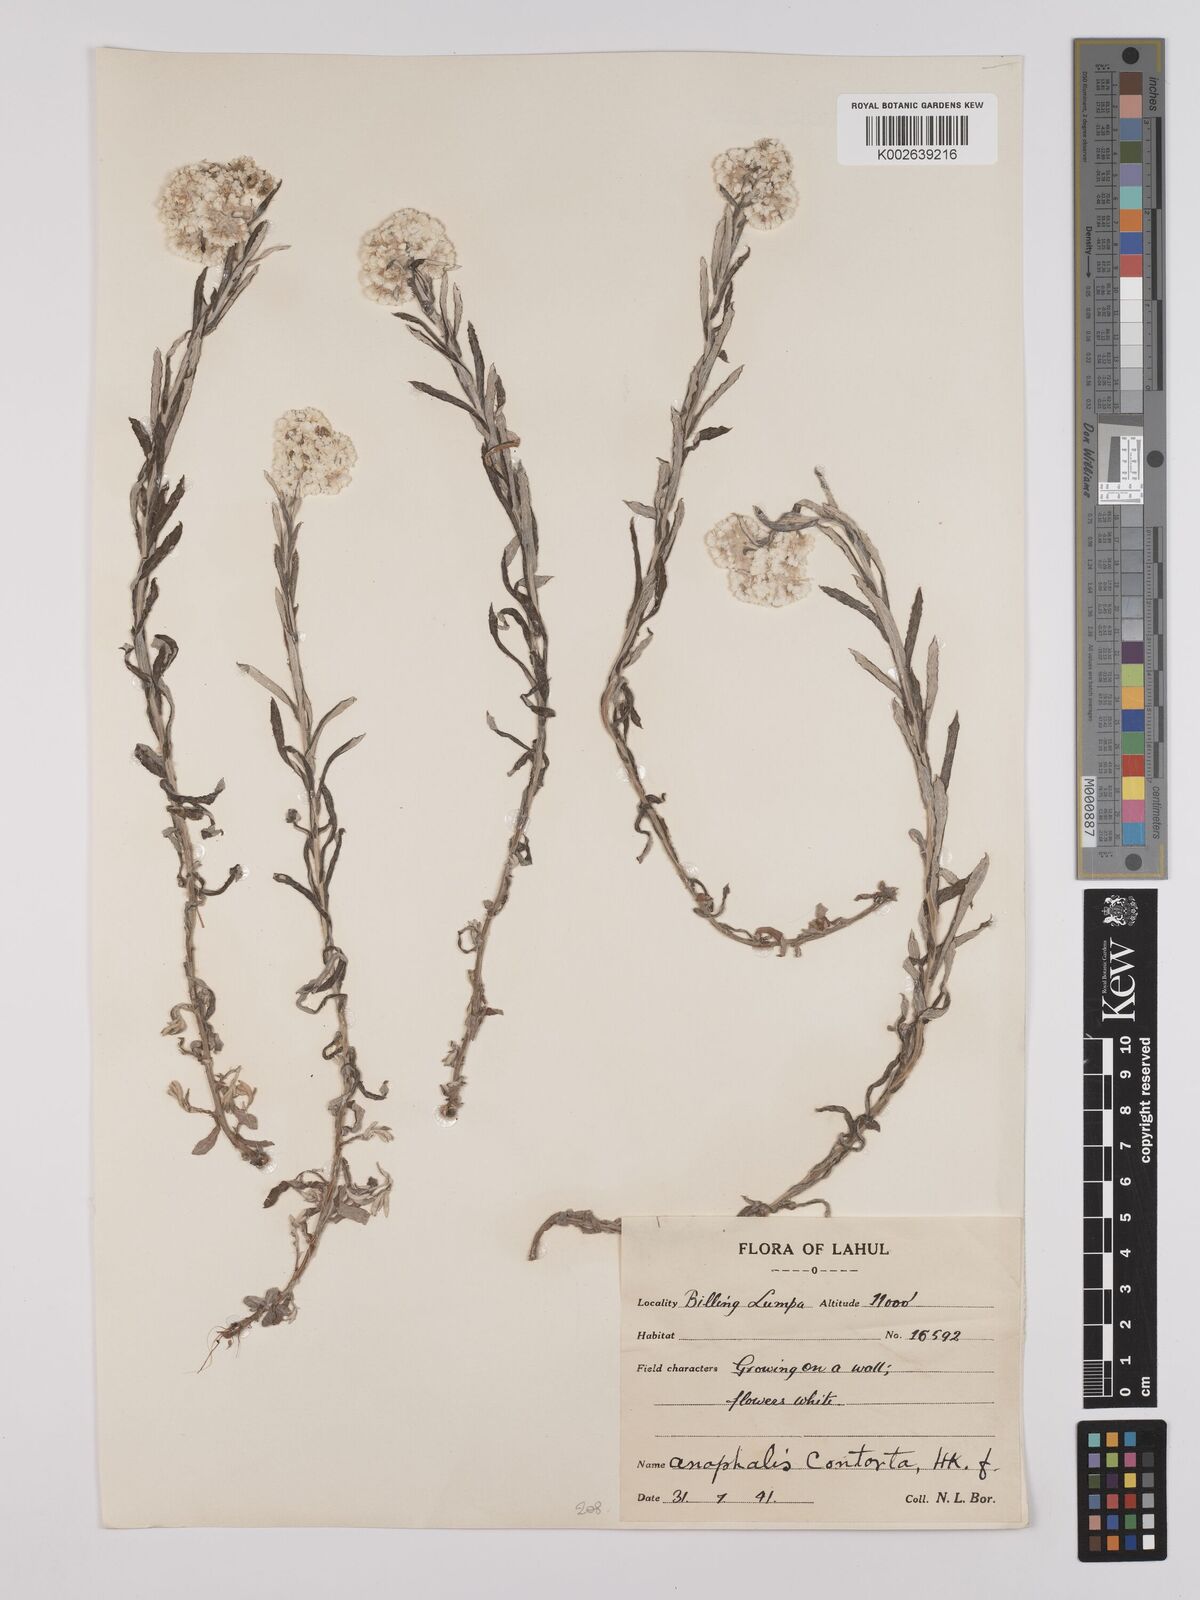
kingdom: Plantae
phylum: Tracheophyta
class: Magnoliopsida
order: Asterales
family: Asteraceae
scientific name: Asteraceae
